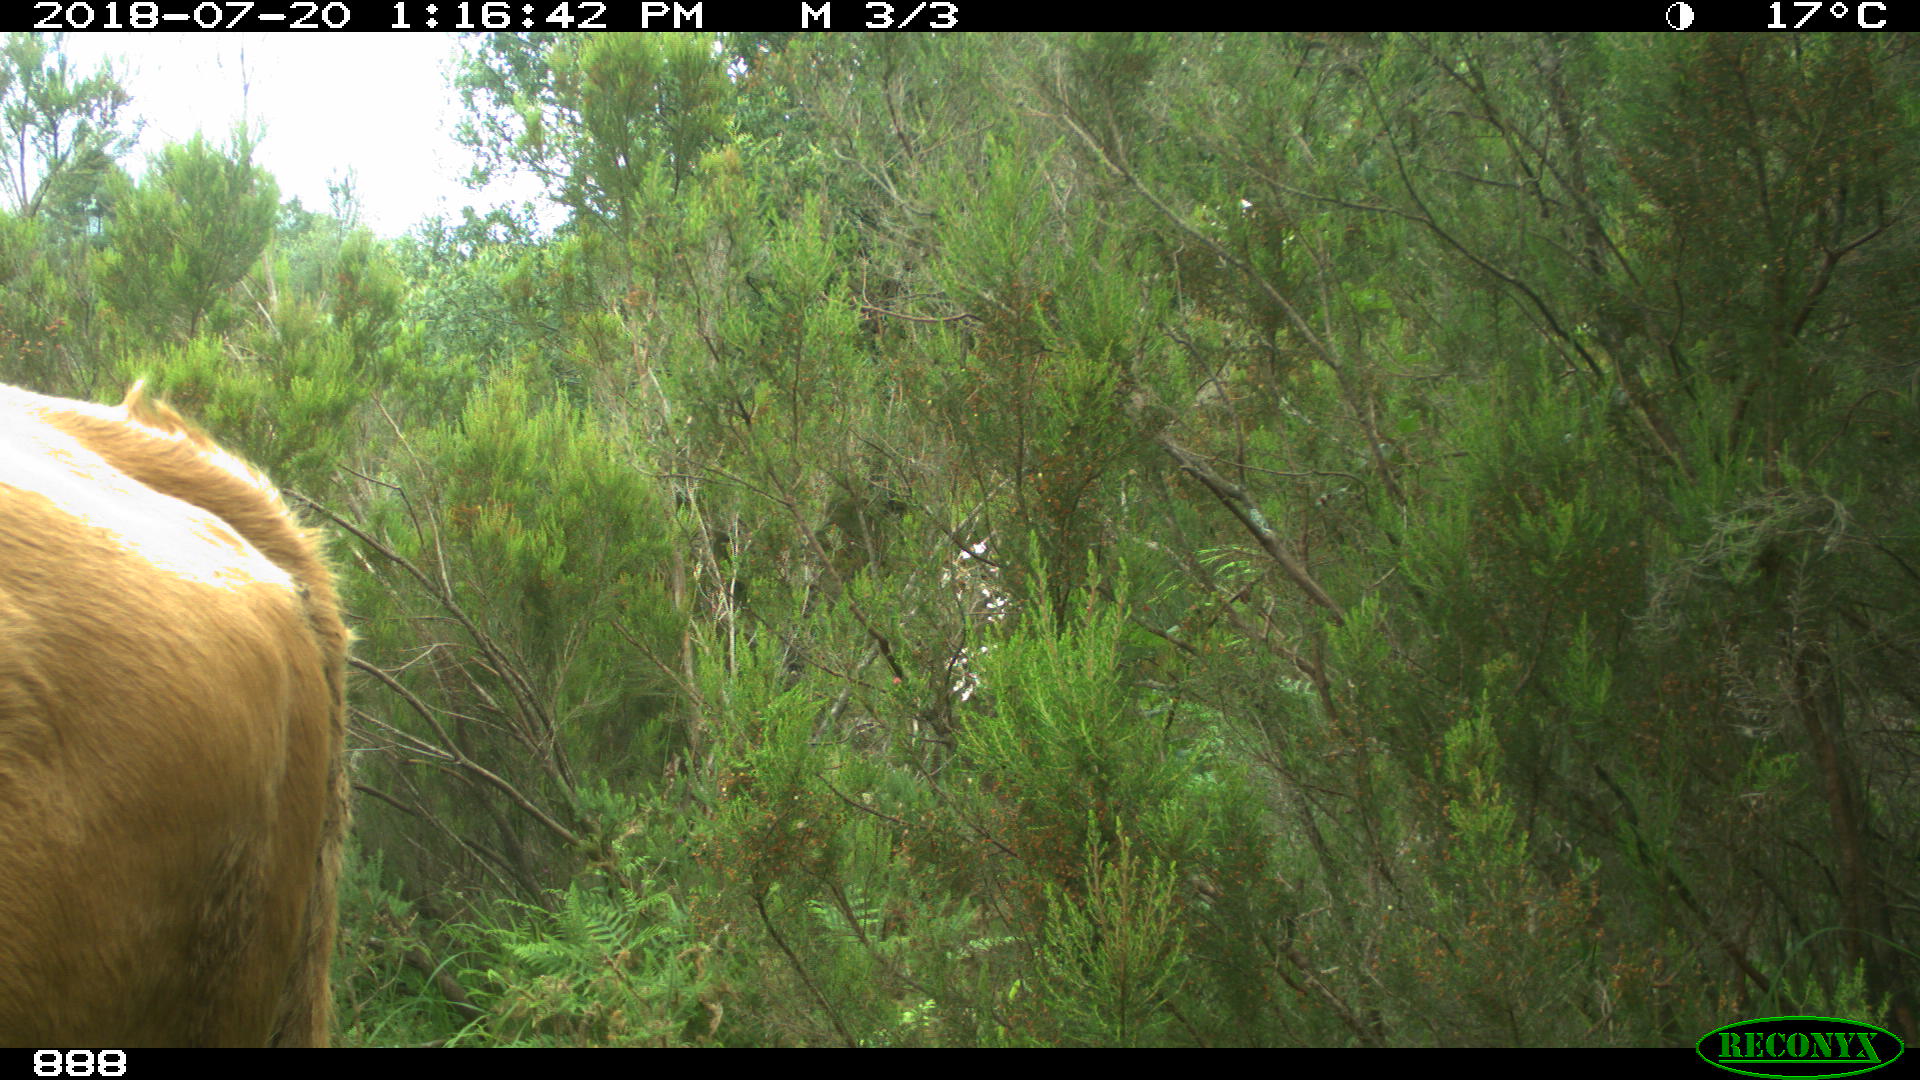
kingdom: Animalia
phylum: Chordata
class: Mammalia
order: Artiodactyla
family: Bovidae
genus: Bos
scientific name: Bos taurus
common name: Domesticated cattle
